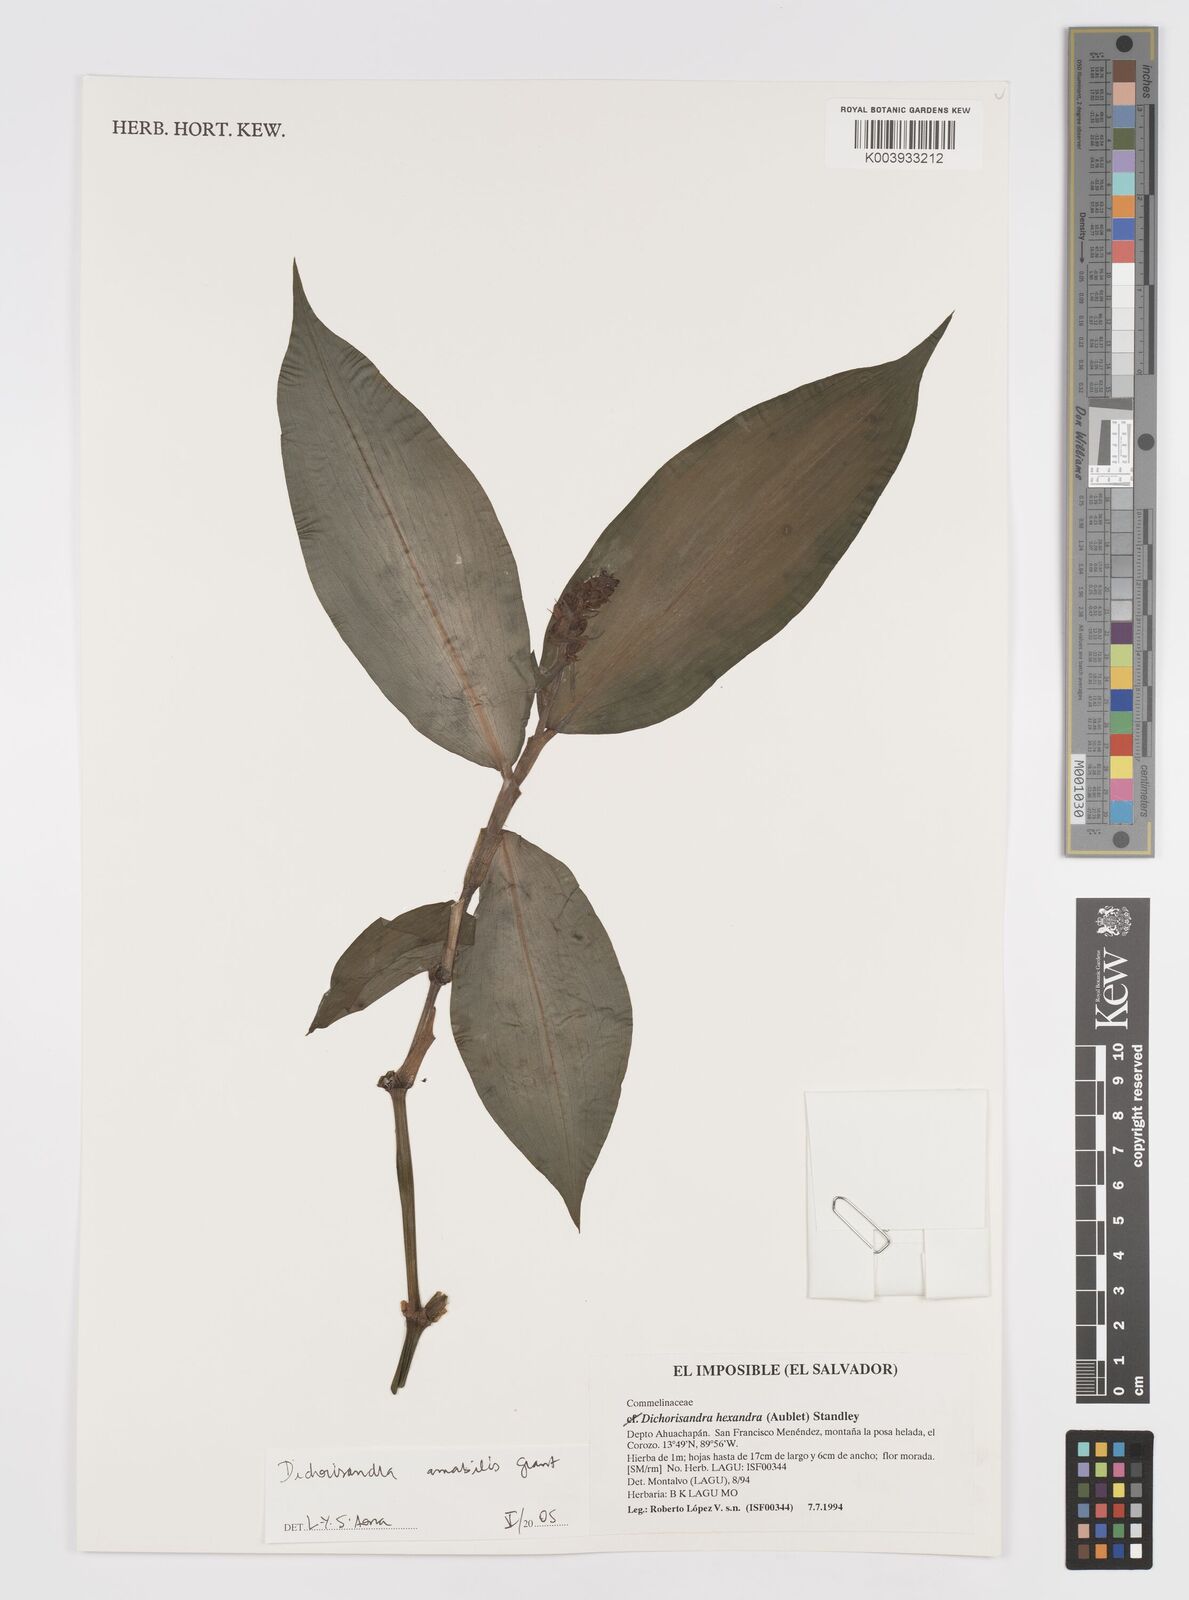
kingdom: Plantae
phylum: Tracheophyta
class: Liliopsida
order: Commelinales
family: Commelinaceae
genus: Dichorisandra
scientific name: Dichorisandra amabilis
